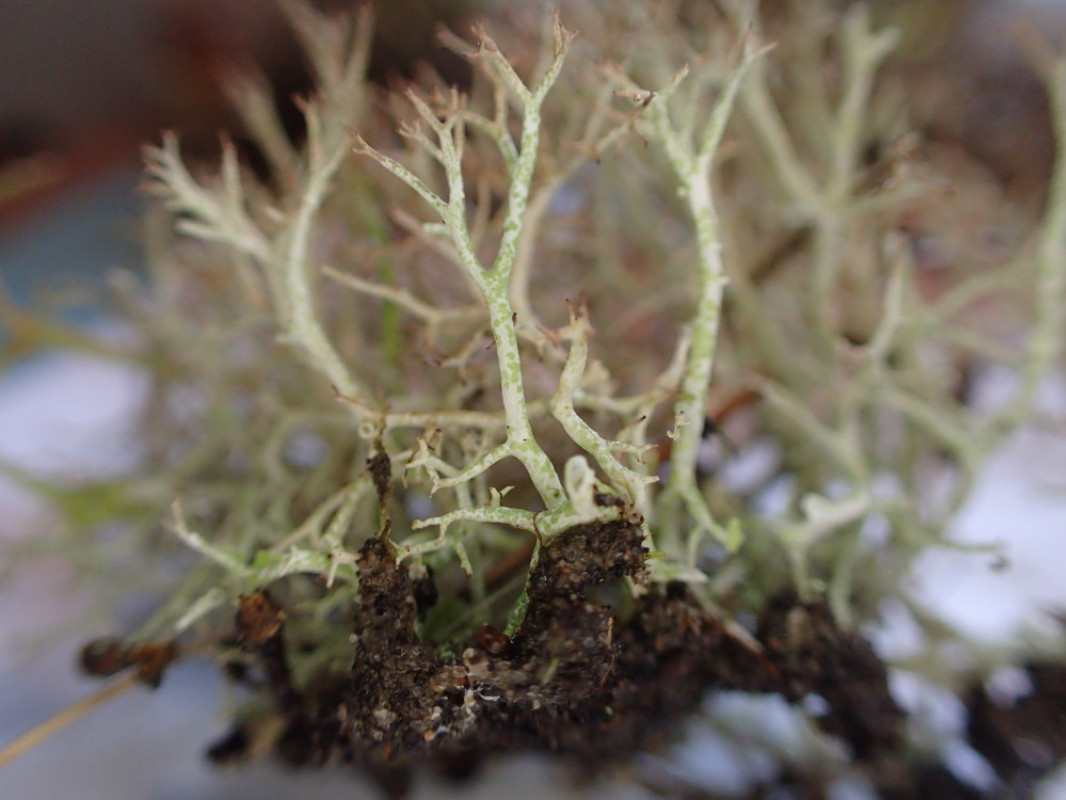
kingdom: Fungi
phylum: Ascomycota
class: Lecanoromycetes
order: Lecanorales
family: Cladoniaceae
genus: Cladonia
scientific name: Cladonia rangiformis
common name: spættet bægerlav
